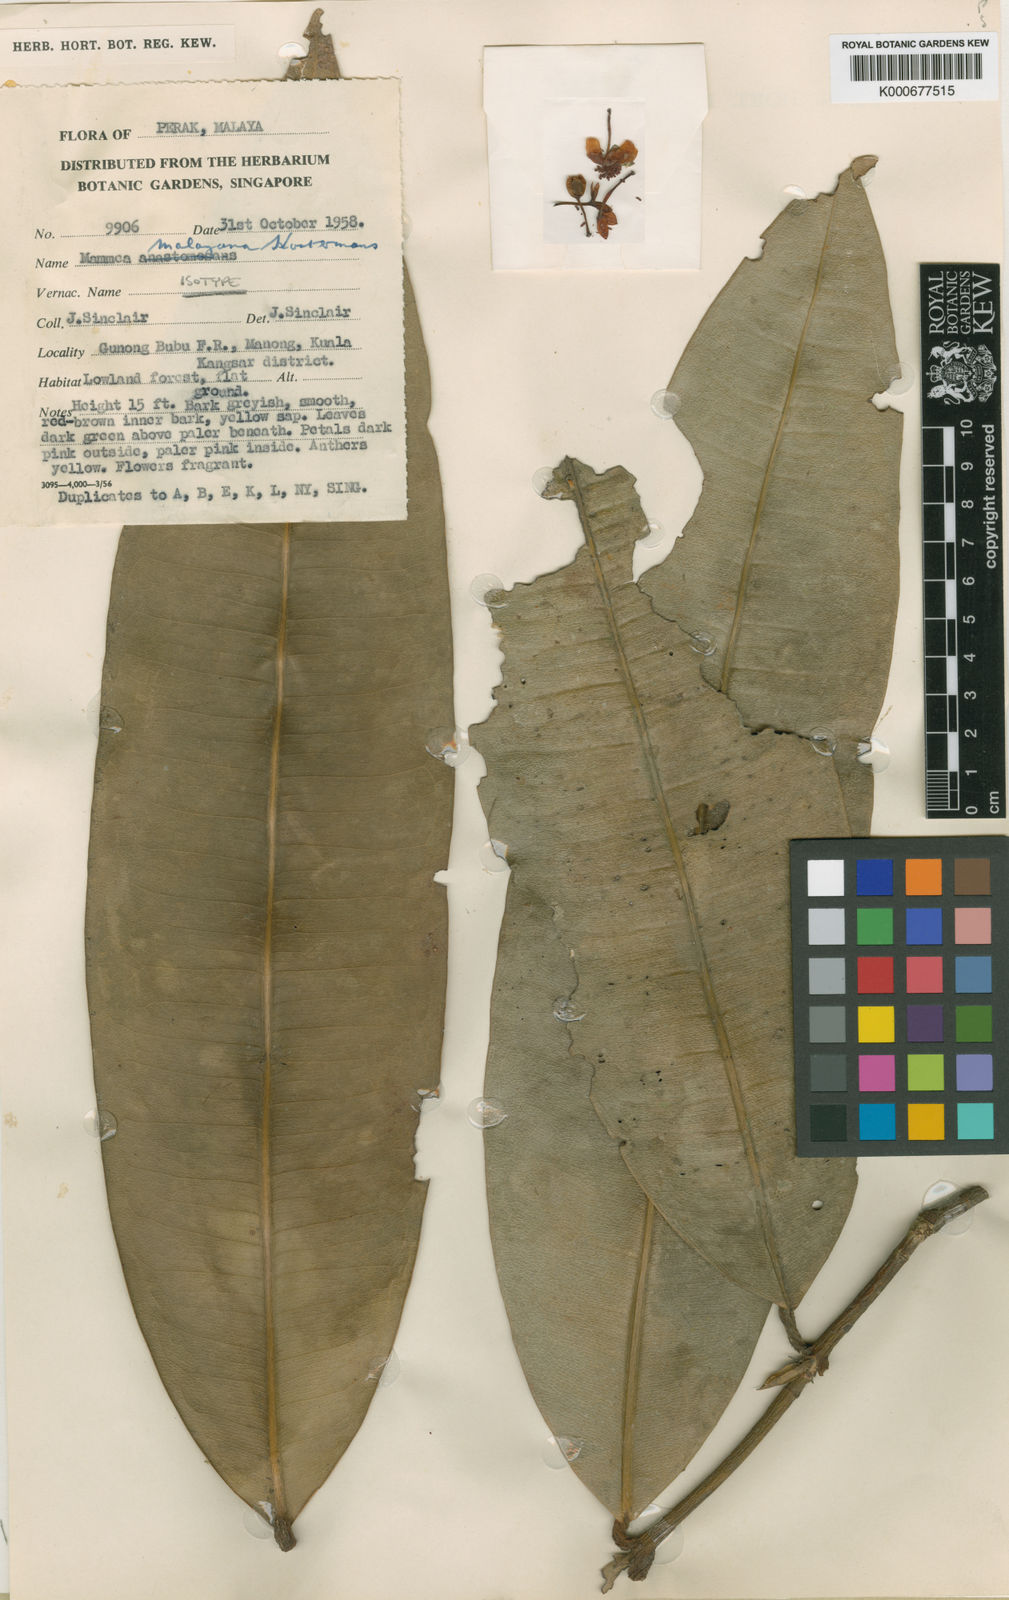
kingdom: Plantae
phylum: Tracheophyta
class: Magnoliopsida
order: Malpighiales
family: Calophyllaceae
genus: Mammea
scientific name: Mammea malayana
